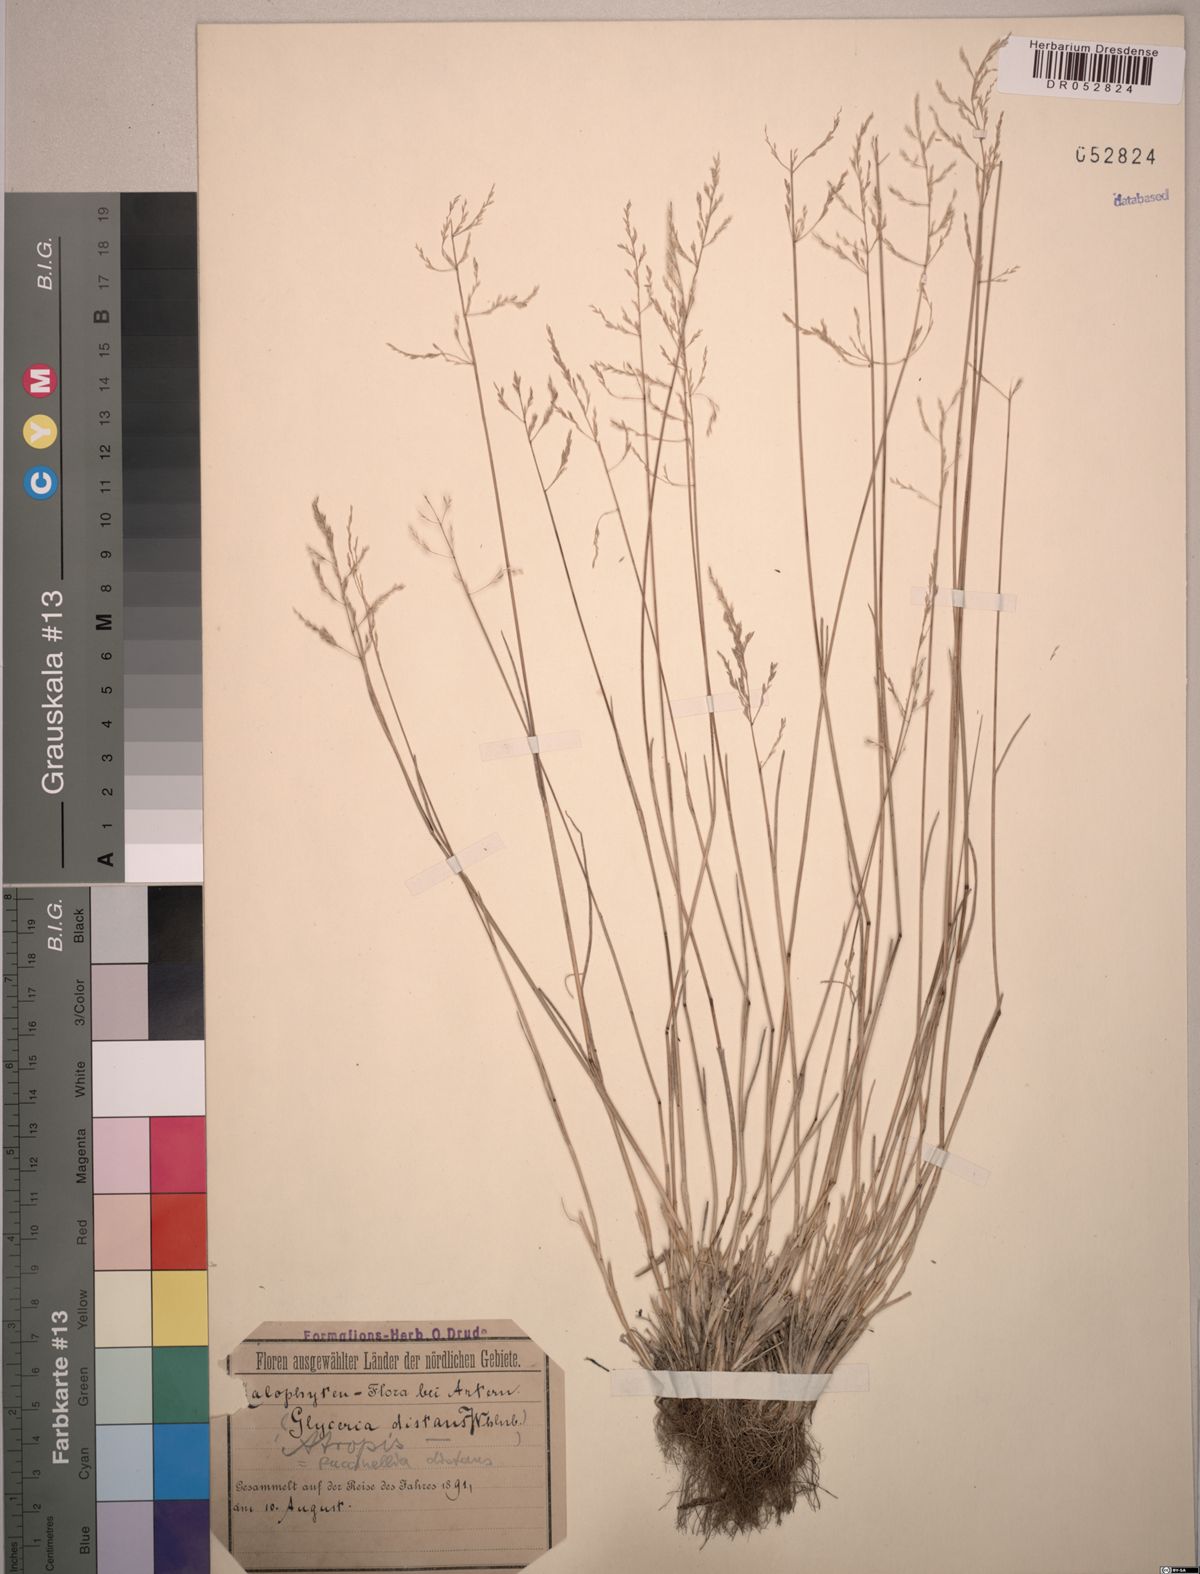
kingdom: Plantae
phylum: Tracheophyta
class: Liliopsida
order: Poales
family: Poaceae
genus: Puccinellia
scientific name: Puccinellia distans
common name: Weeping alkaligrass
